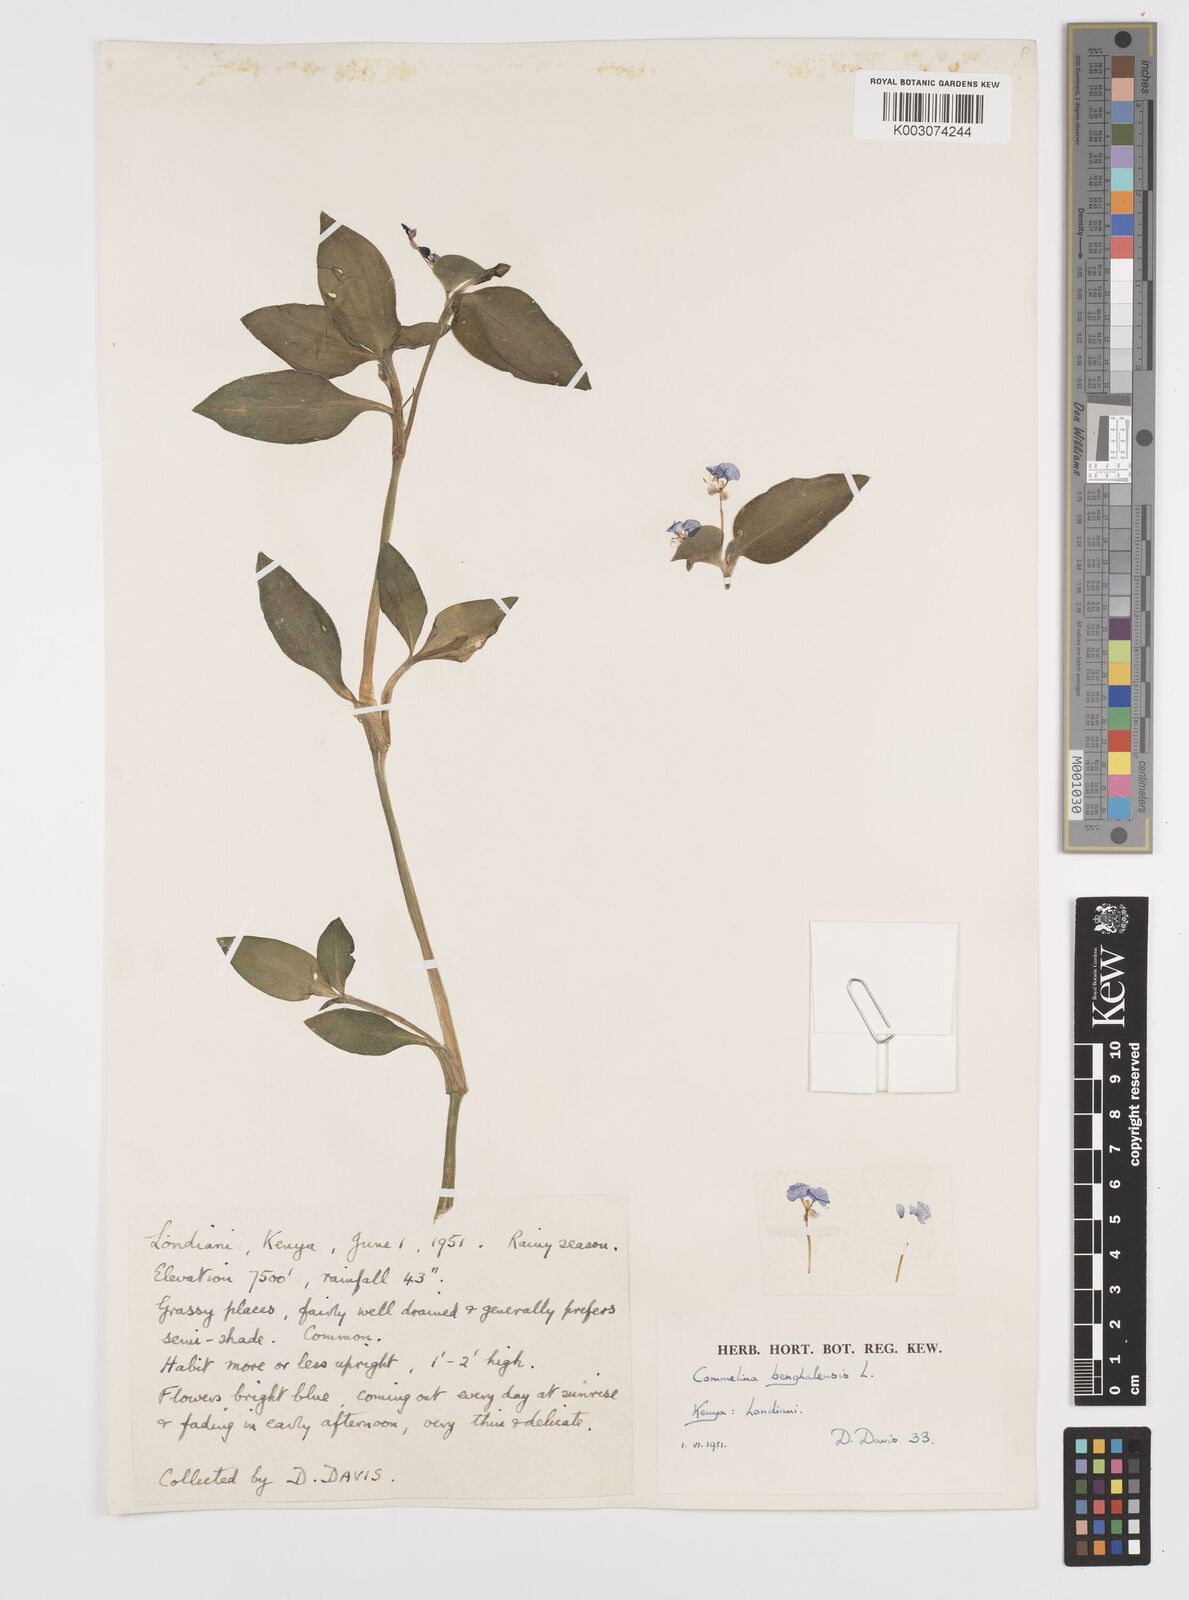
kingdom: Plantae
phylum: Tracheophyta
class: Liliopsida
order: Commelinales
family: Commelinaceae
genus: Commelina
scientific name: Commelina benghalensis
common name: Jio
